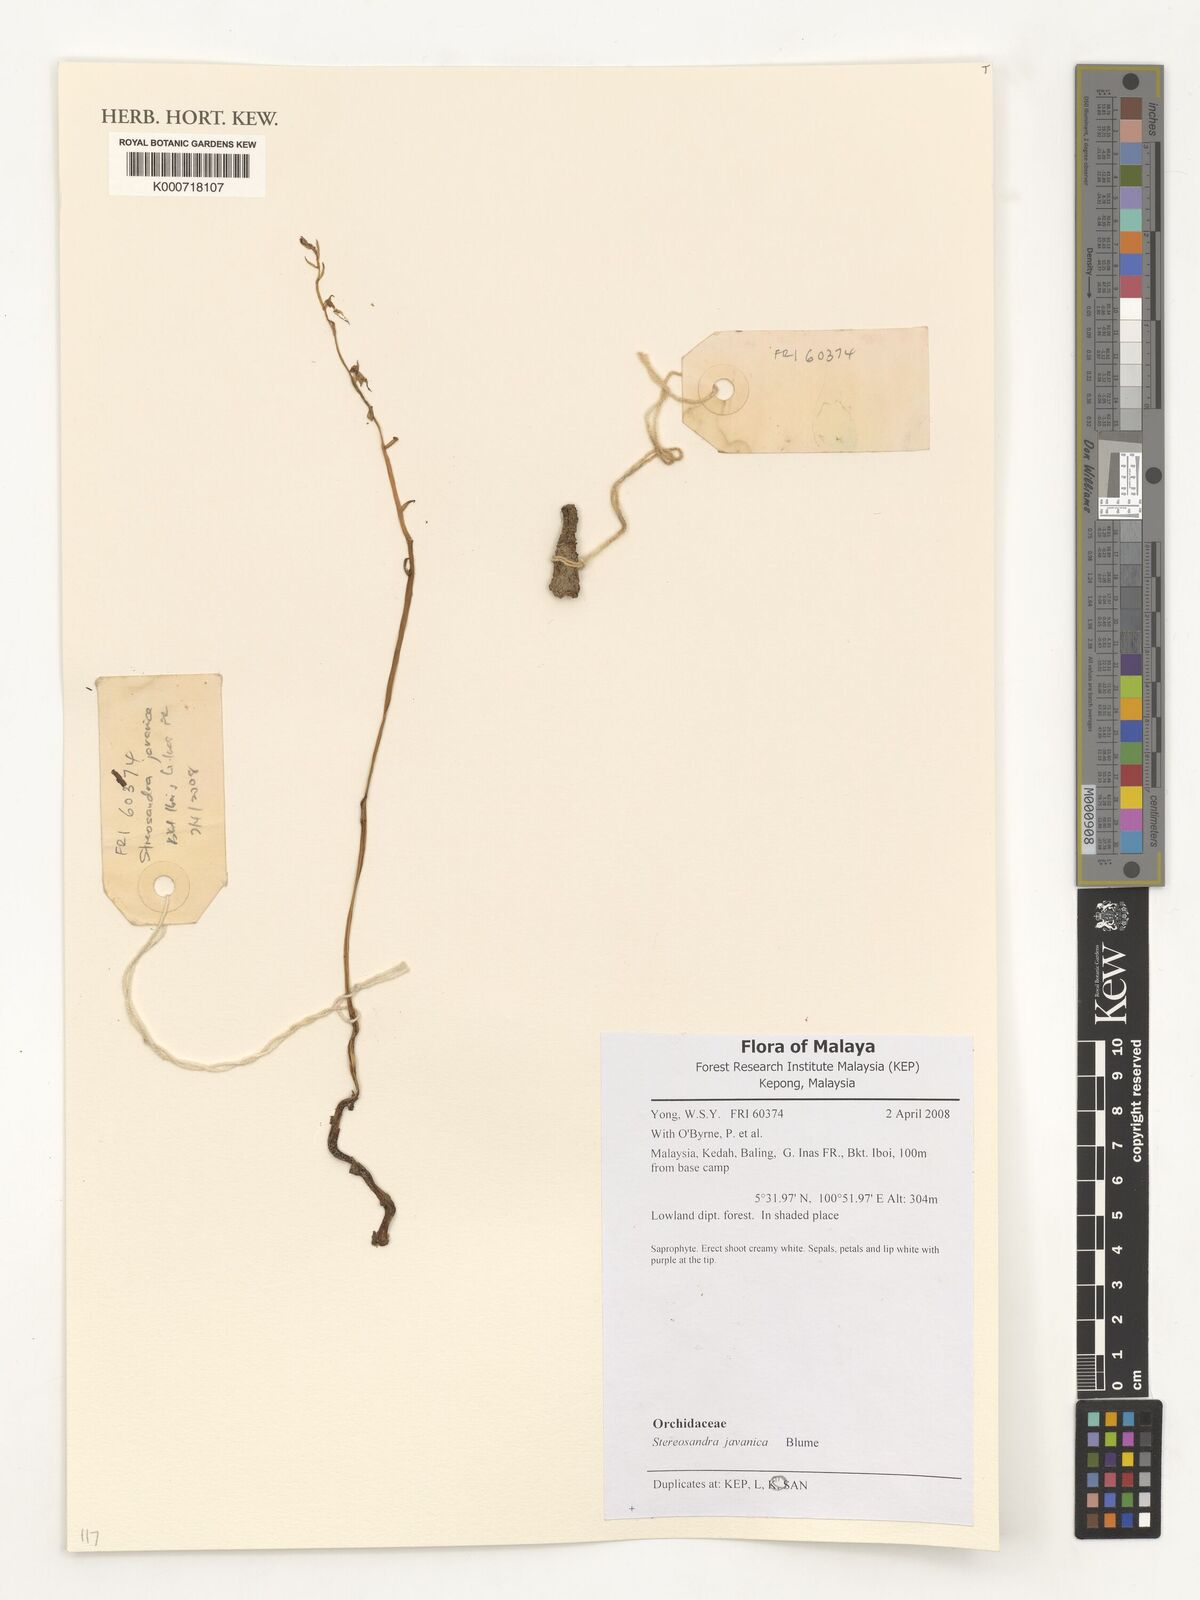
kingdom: Plantae
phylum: Tracheophyta
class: Liliopsida
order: Asparagales
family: Orchidaceae
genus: Stereosandra
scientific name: Stereosandra javanica
